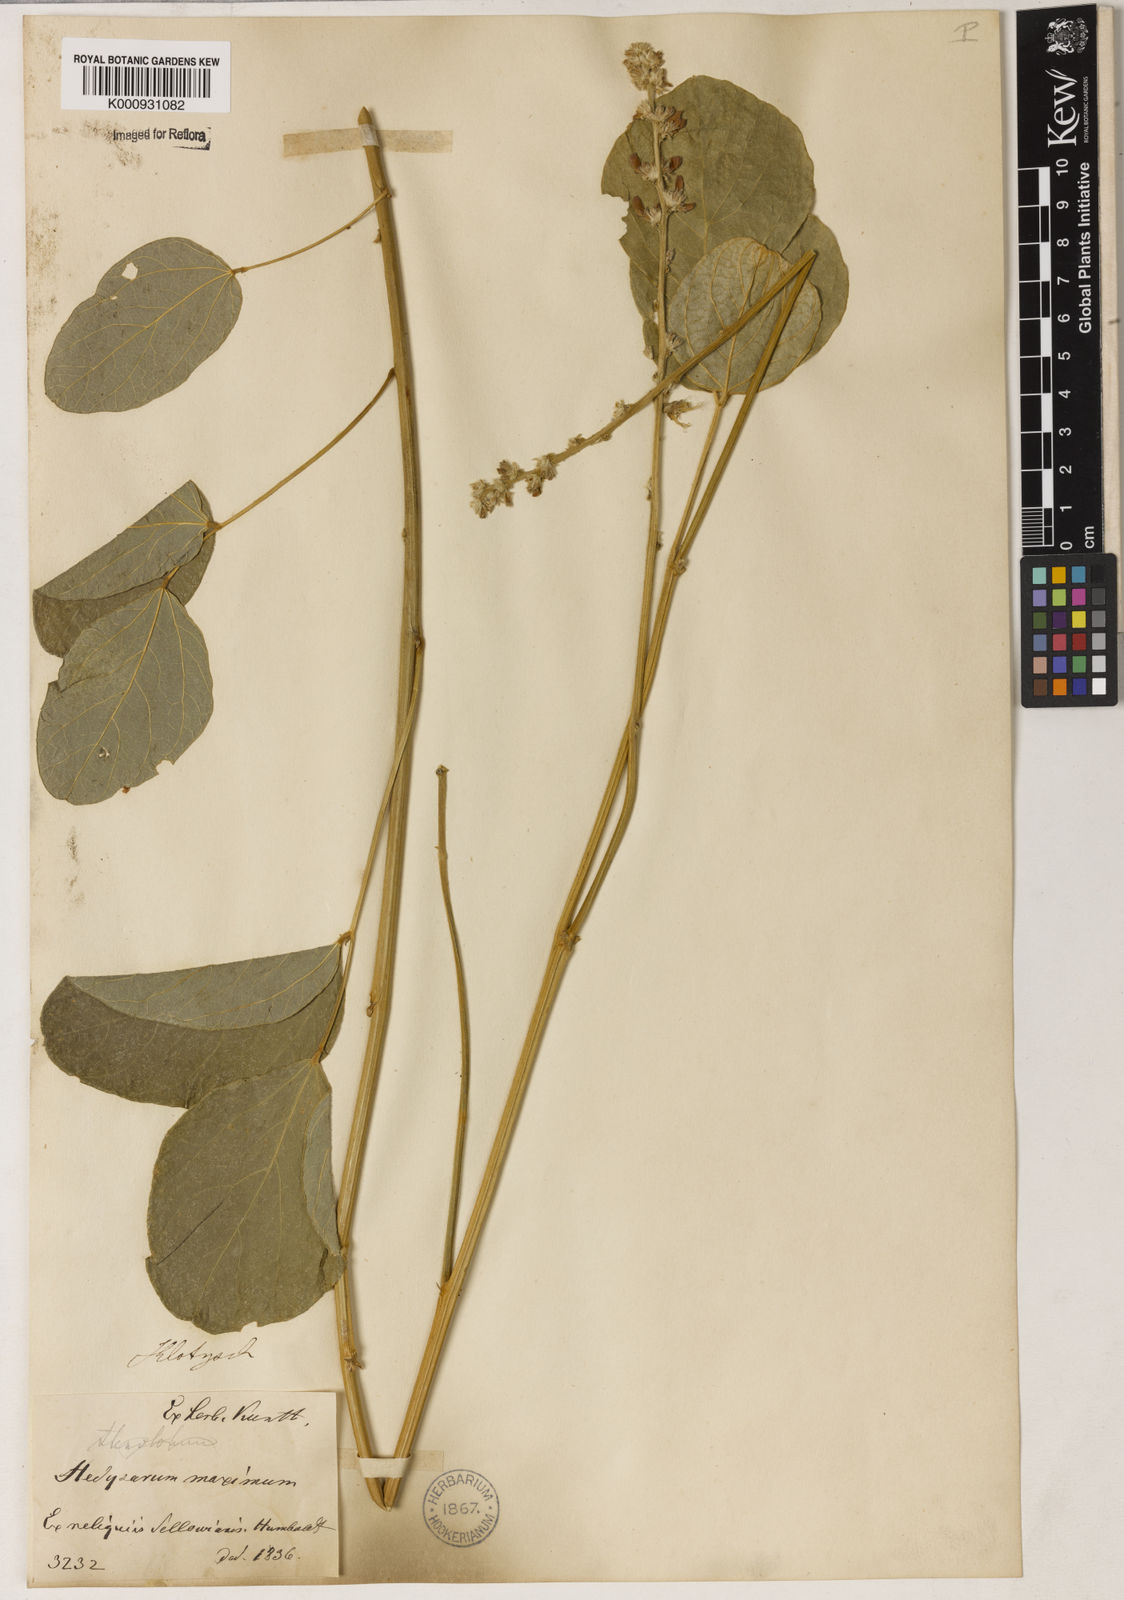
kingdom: Plantae
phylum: Tracheophyta
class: Magnoliopsida
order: Fabales
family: Fabaceae
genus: Calopogonium
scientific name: Calopogonium caeruleum
